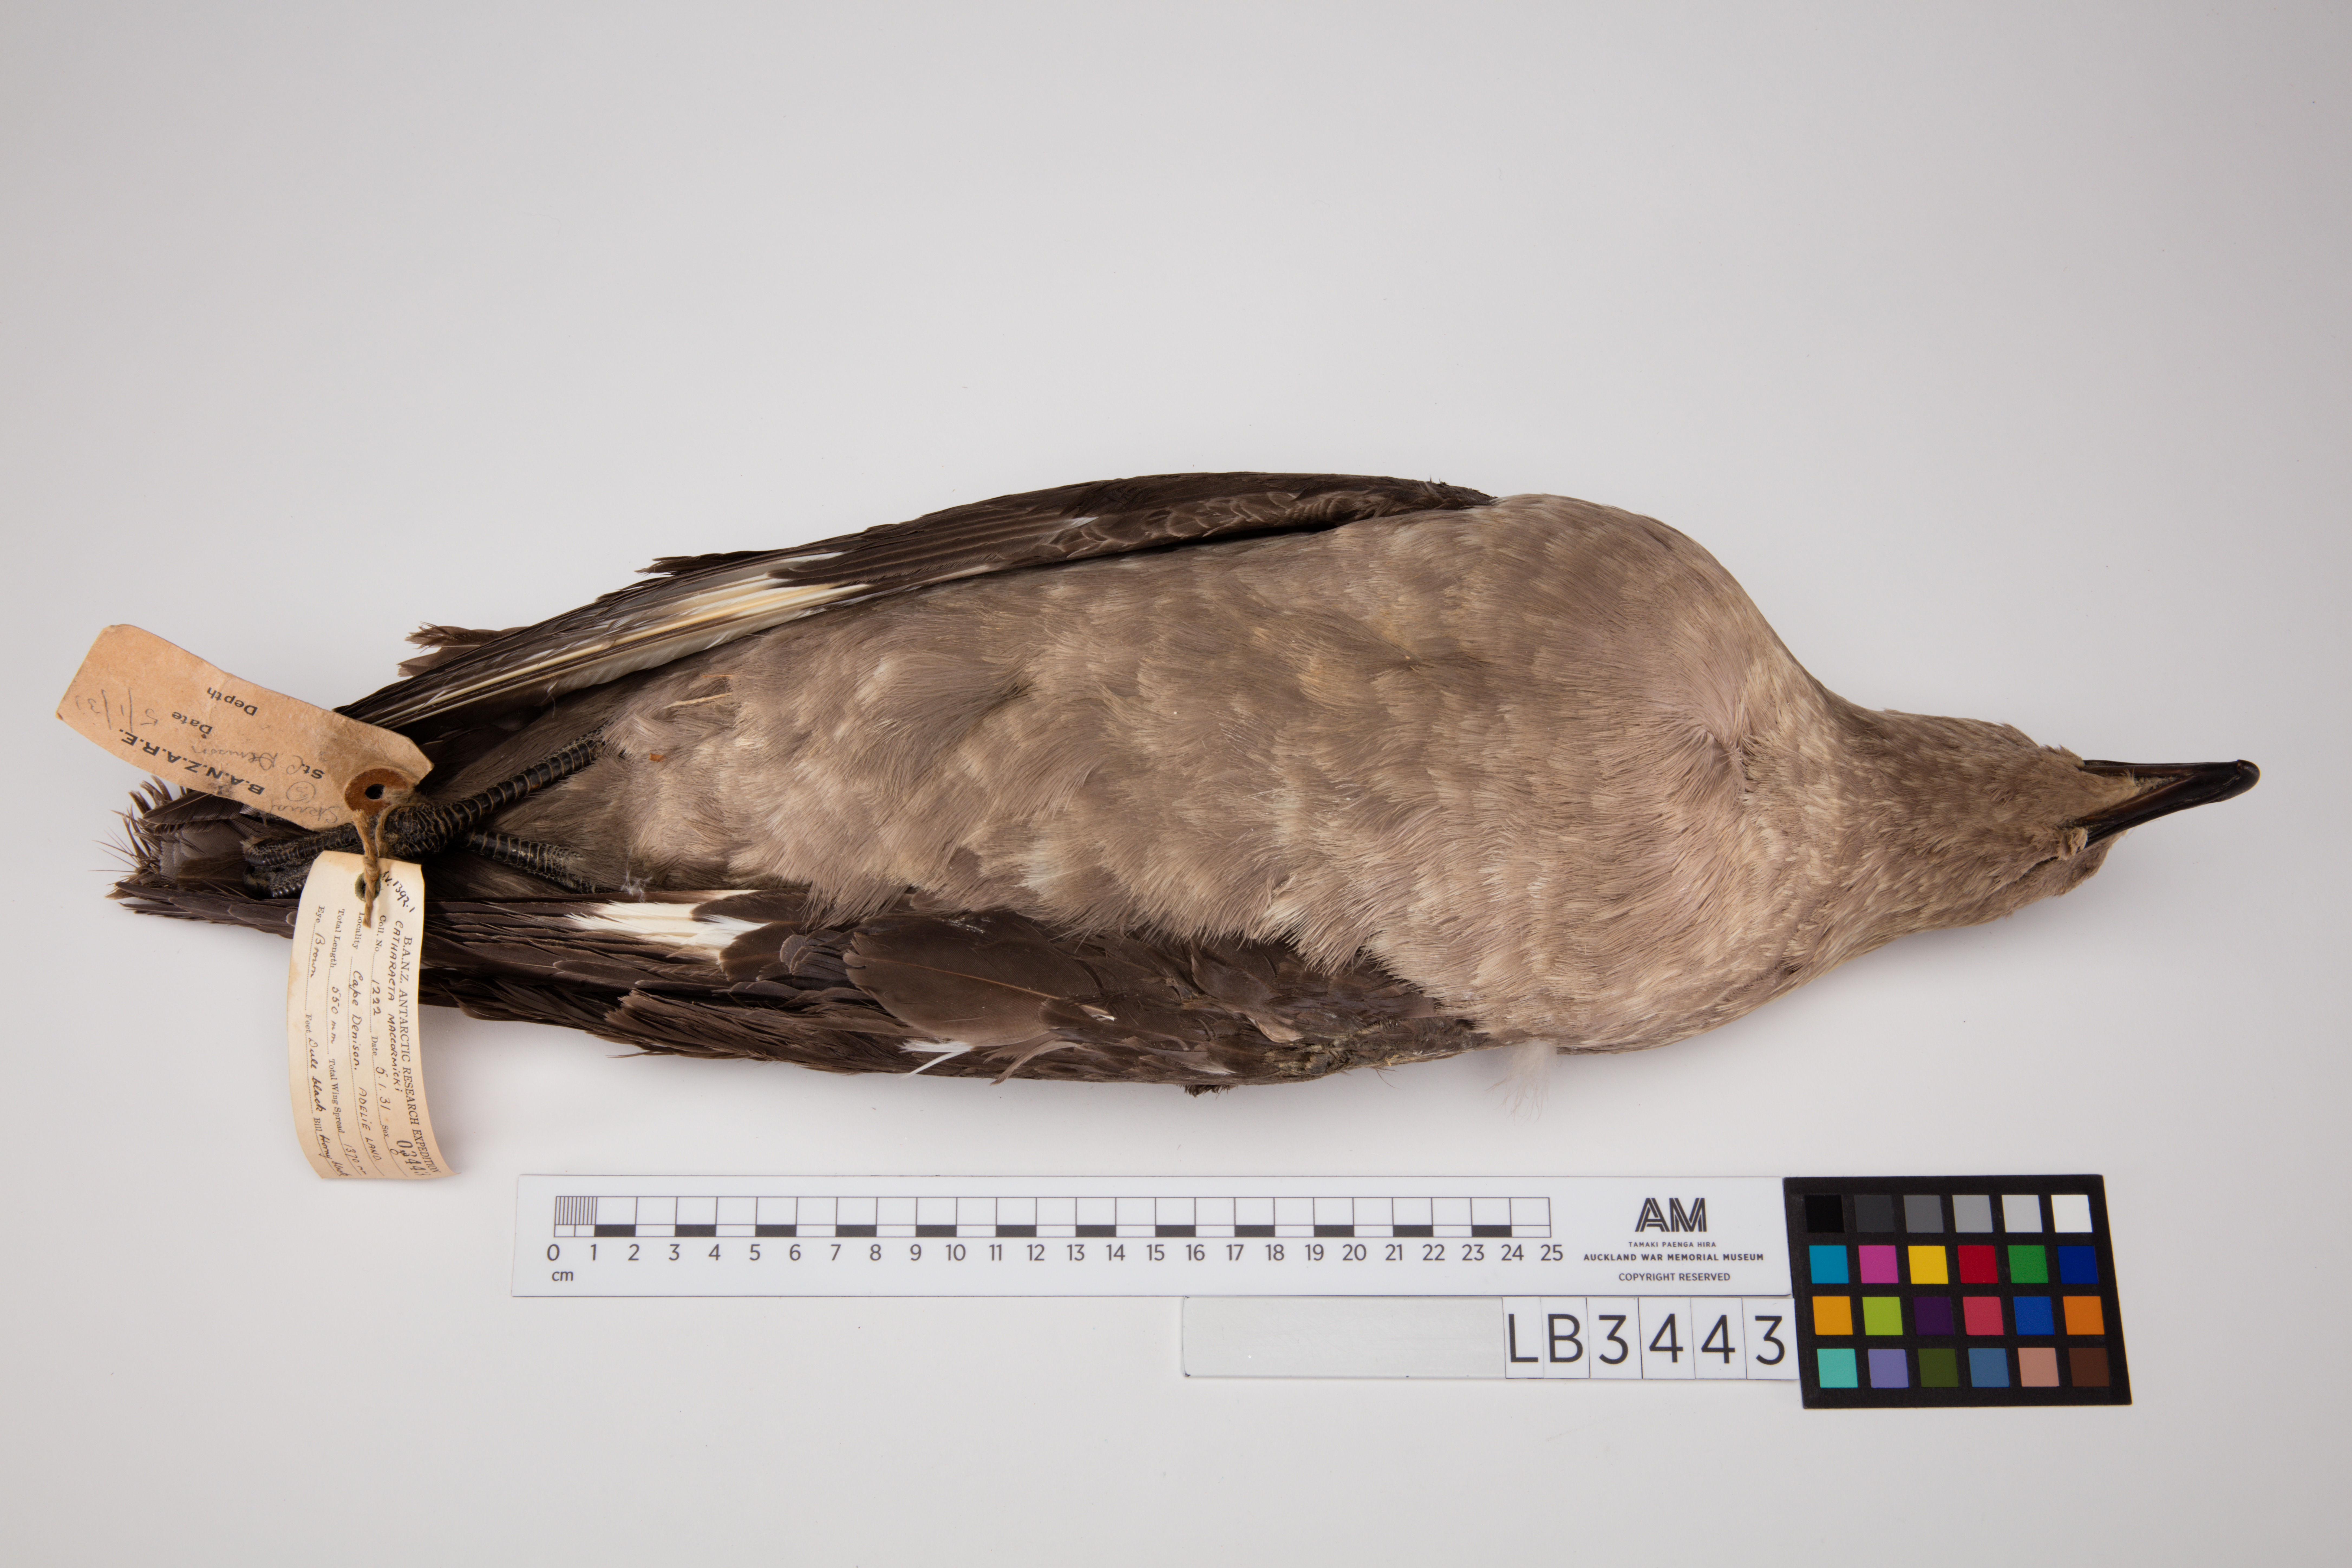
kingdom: Animalia
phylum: Chordata
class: Aves
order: Charadriiformes
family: Stercorariidae
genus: Stercorarius
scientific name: Stercorarius maccormicki
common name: South polar skua
